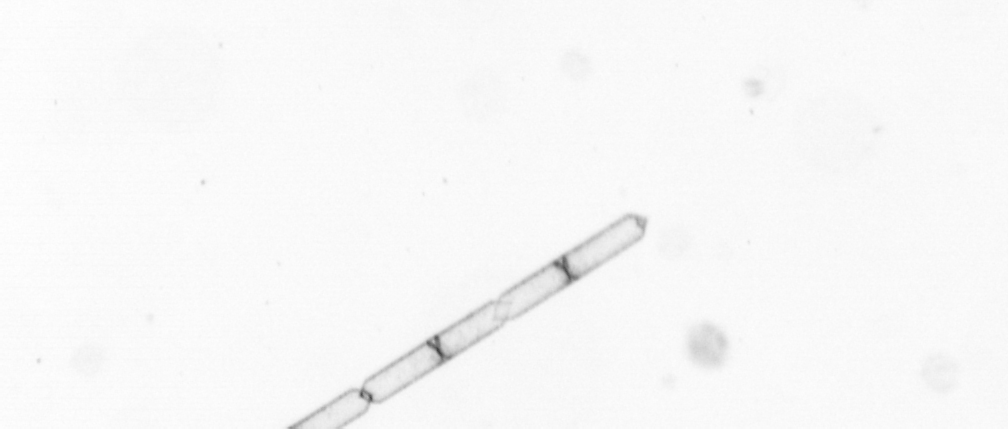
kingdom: Chromista
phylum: Ochrophyta
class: Bacillariophyceae
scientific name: Bacillariophyceae
